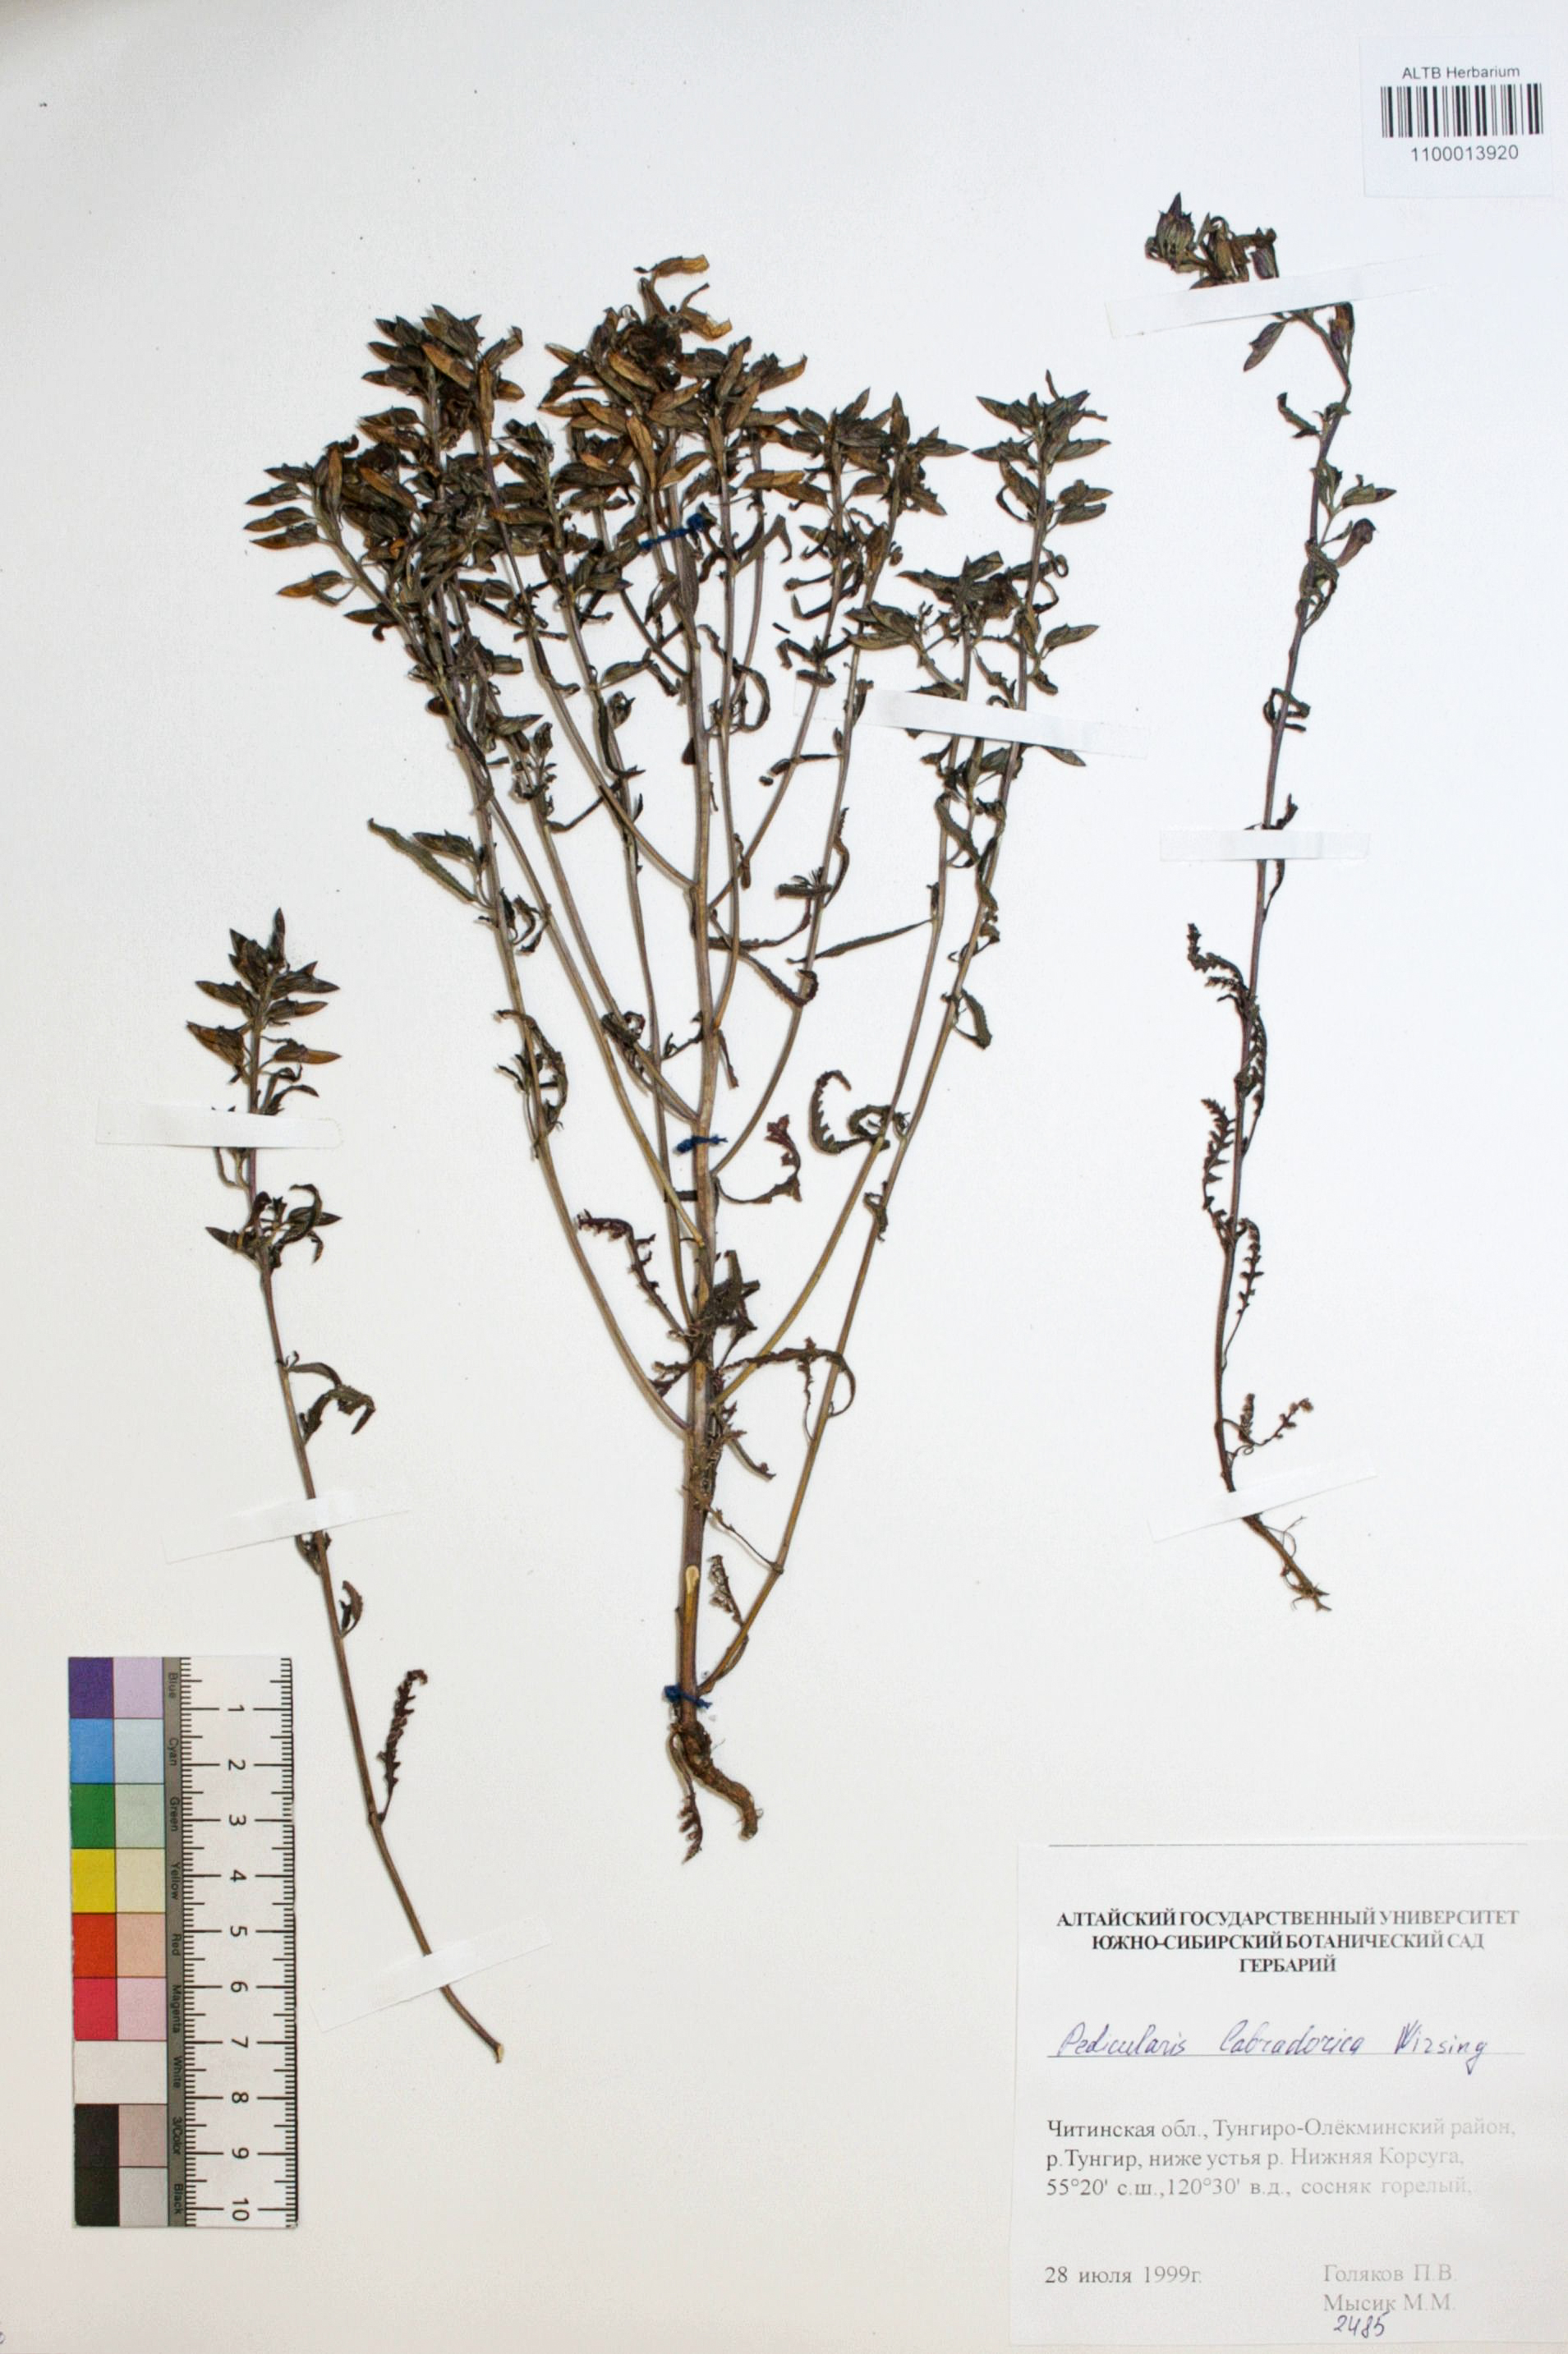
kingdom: Plantae
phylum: Tracheophyta
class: Magnoliopsida
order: Lamiales
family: Orobanchaceae
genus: Pedicularis
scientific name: Pedicularis labradorica
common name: Labrador lousewort
